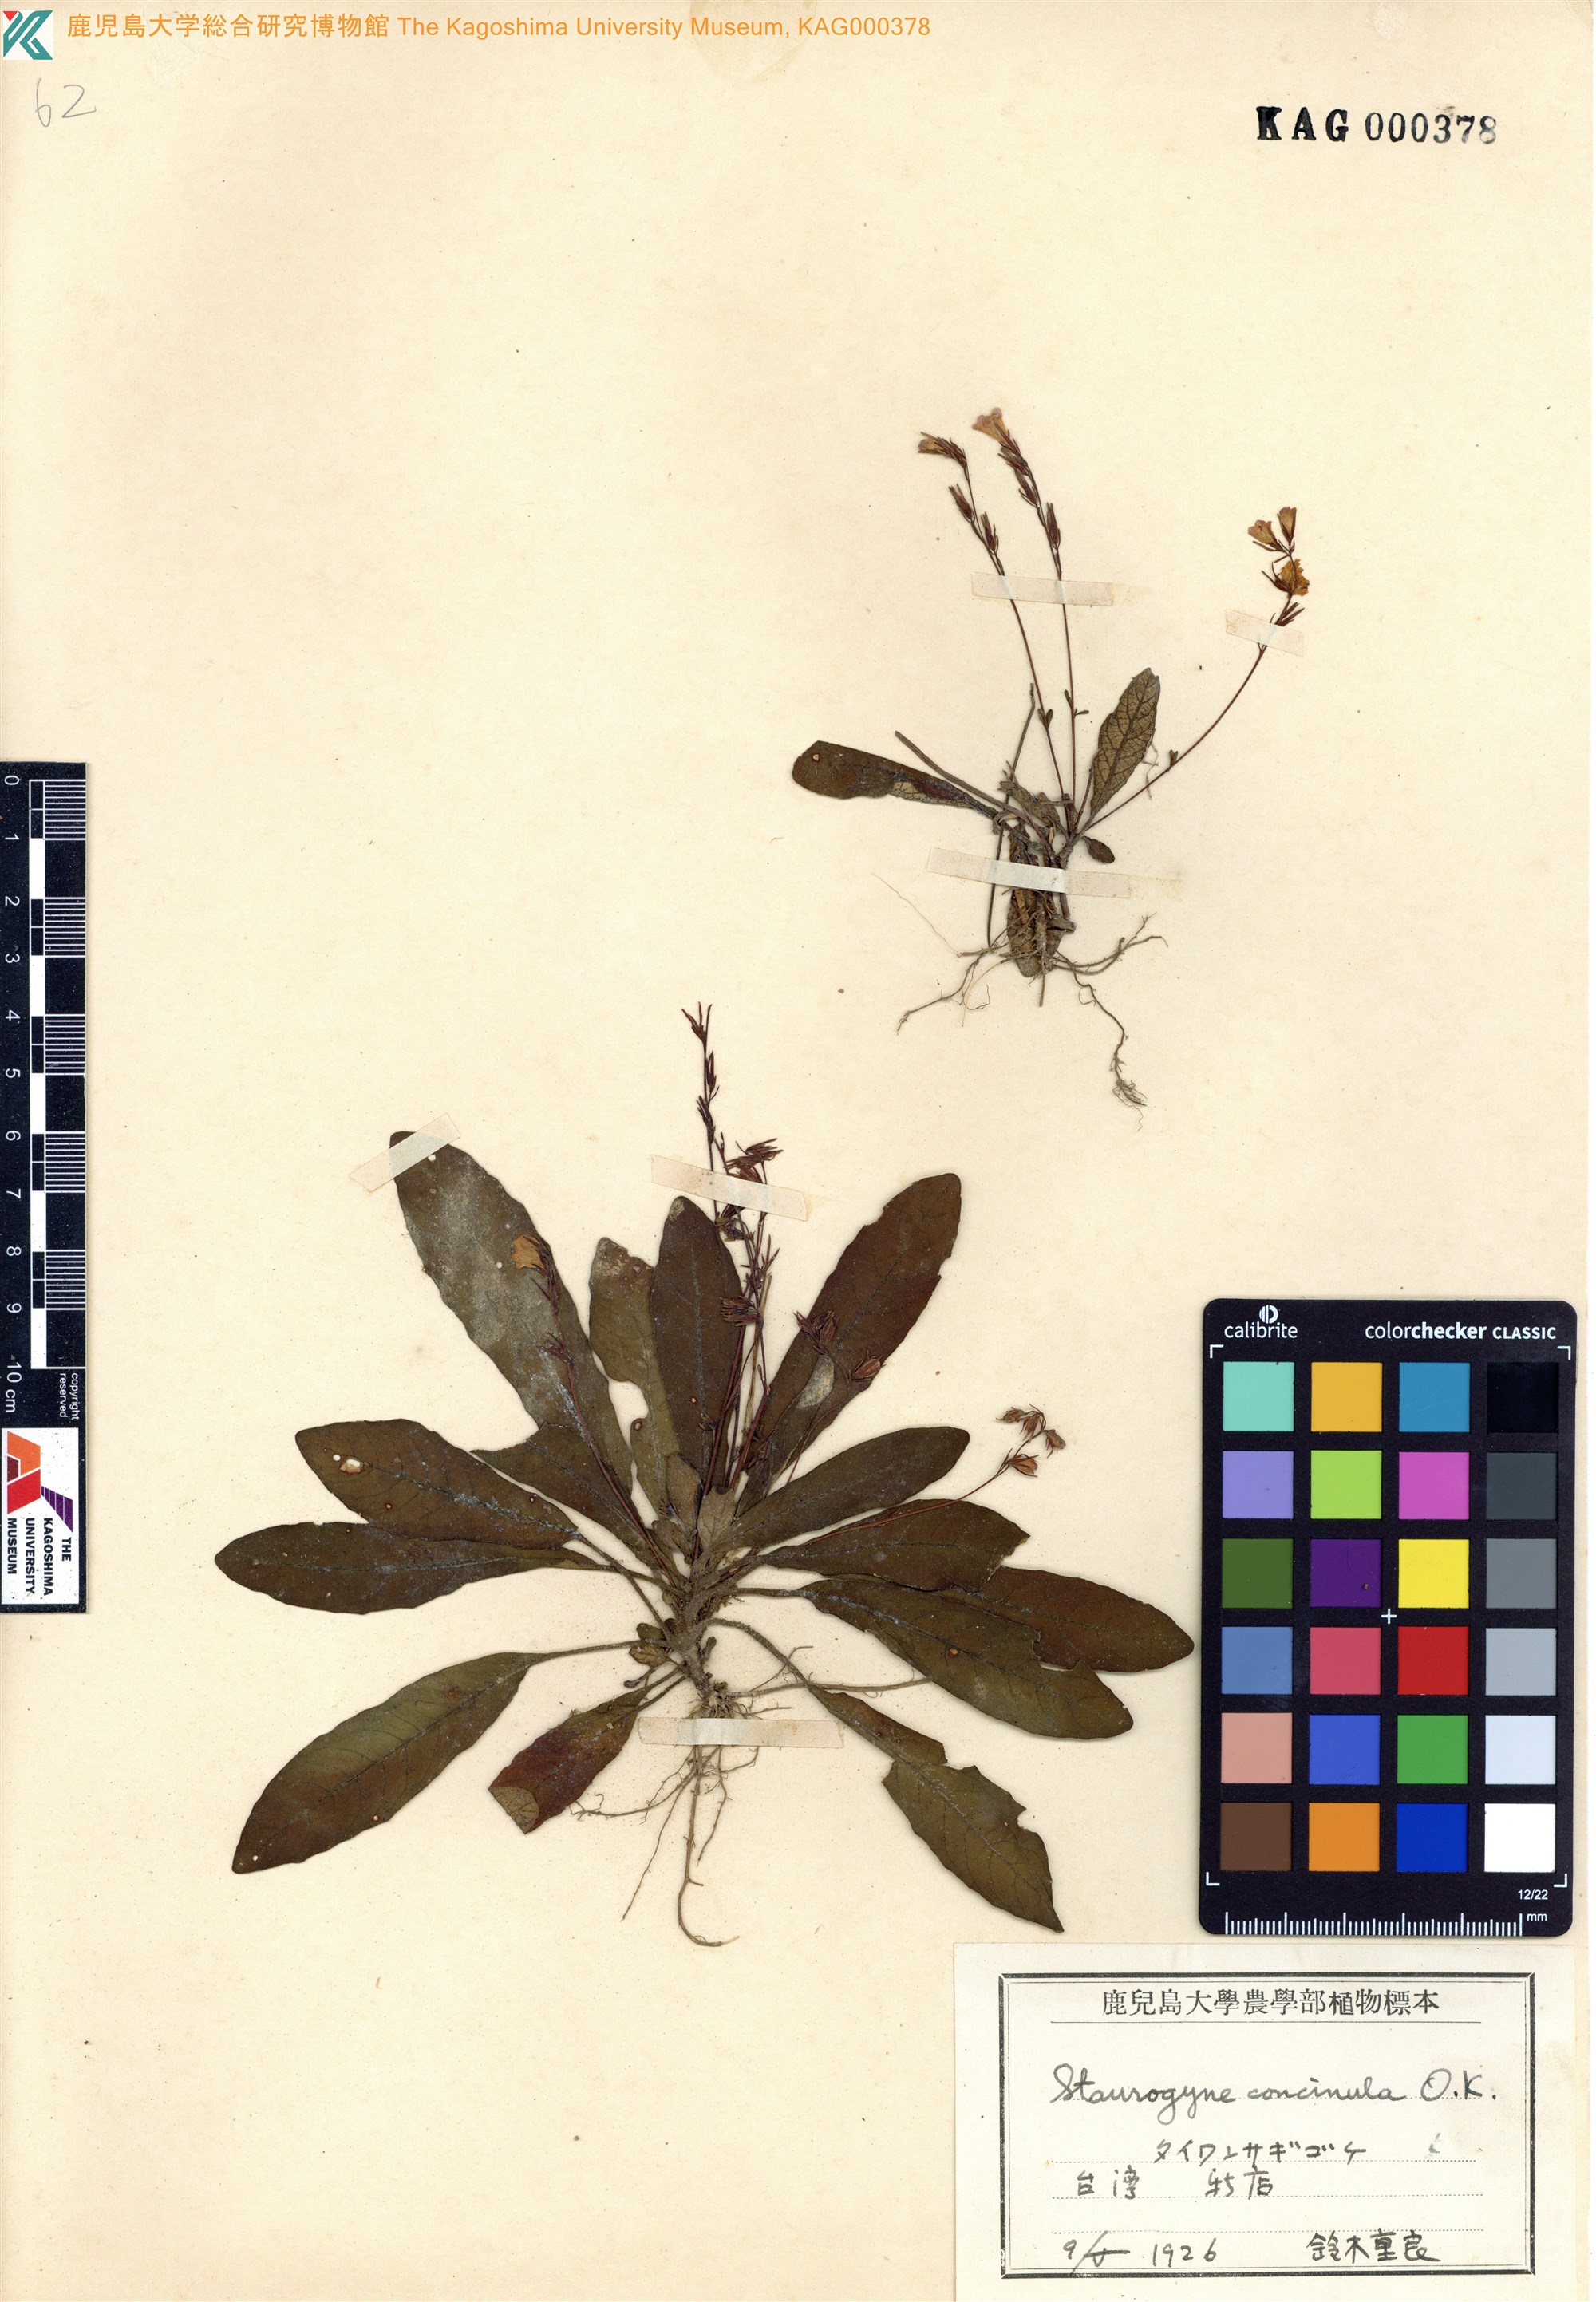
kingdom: Plantae
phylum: Tracheophyta
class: Magnoliopsida
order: Lamiales
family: Acanthaceae
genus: Staurogyne
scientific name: Staurogyne concinnula
